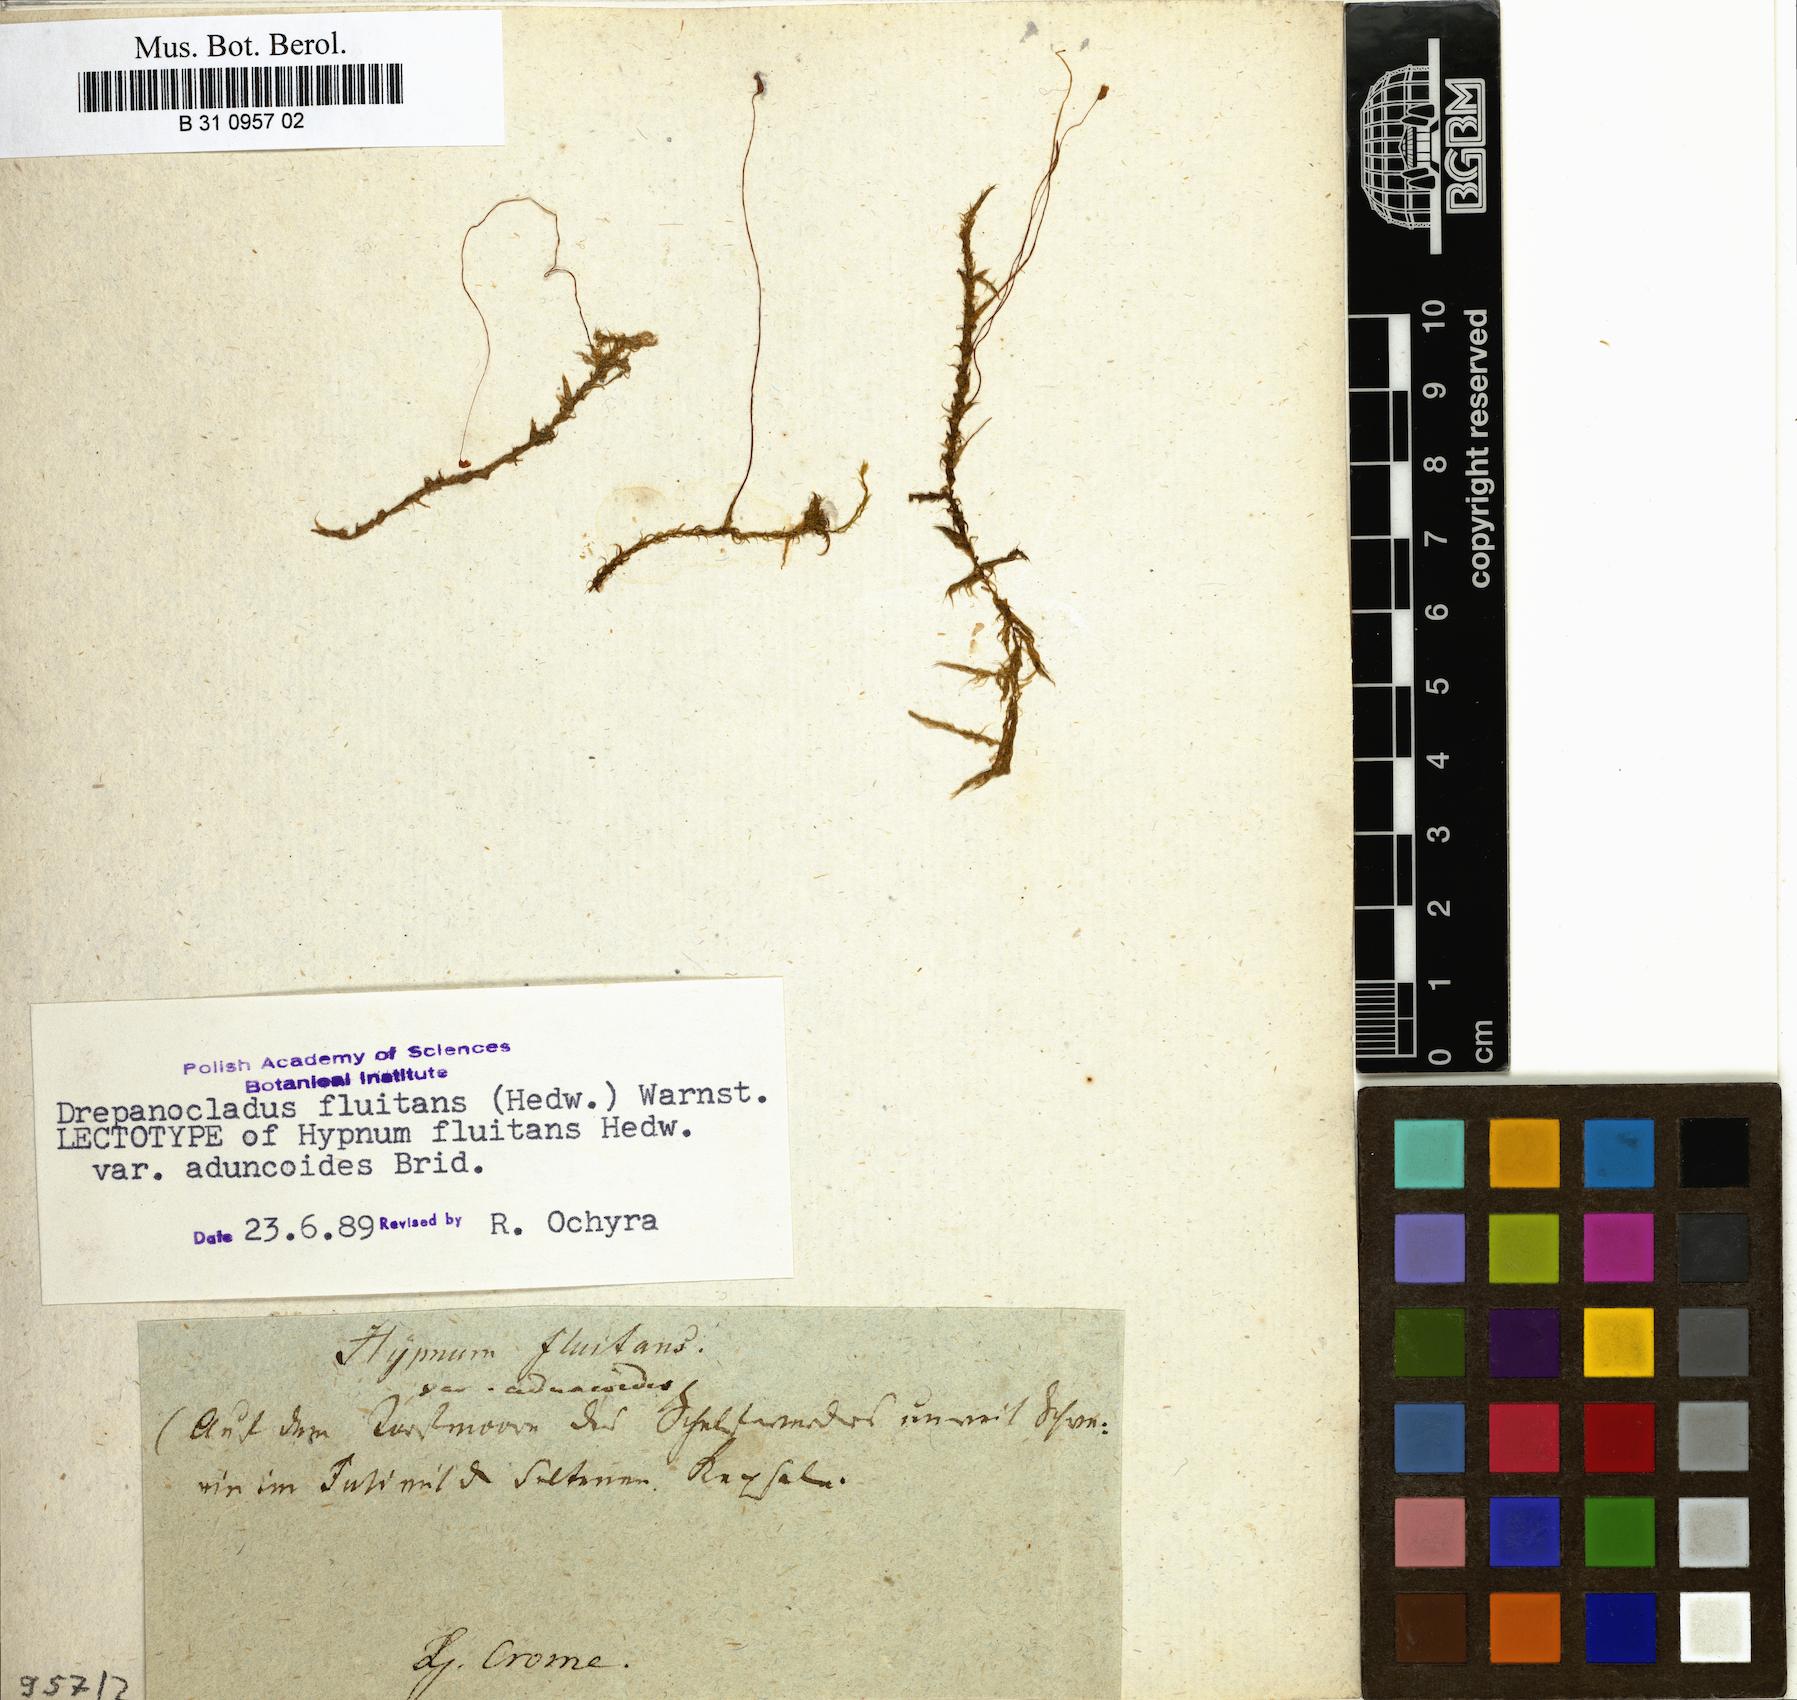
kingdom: Plantae
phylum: Bryophyta
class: Bryopsida
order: Hypnales
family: Calliergonaceae
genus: Warnstorfia
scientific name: Warnstorfia fluitans
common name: Floating hook moss
